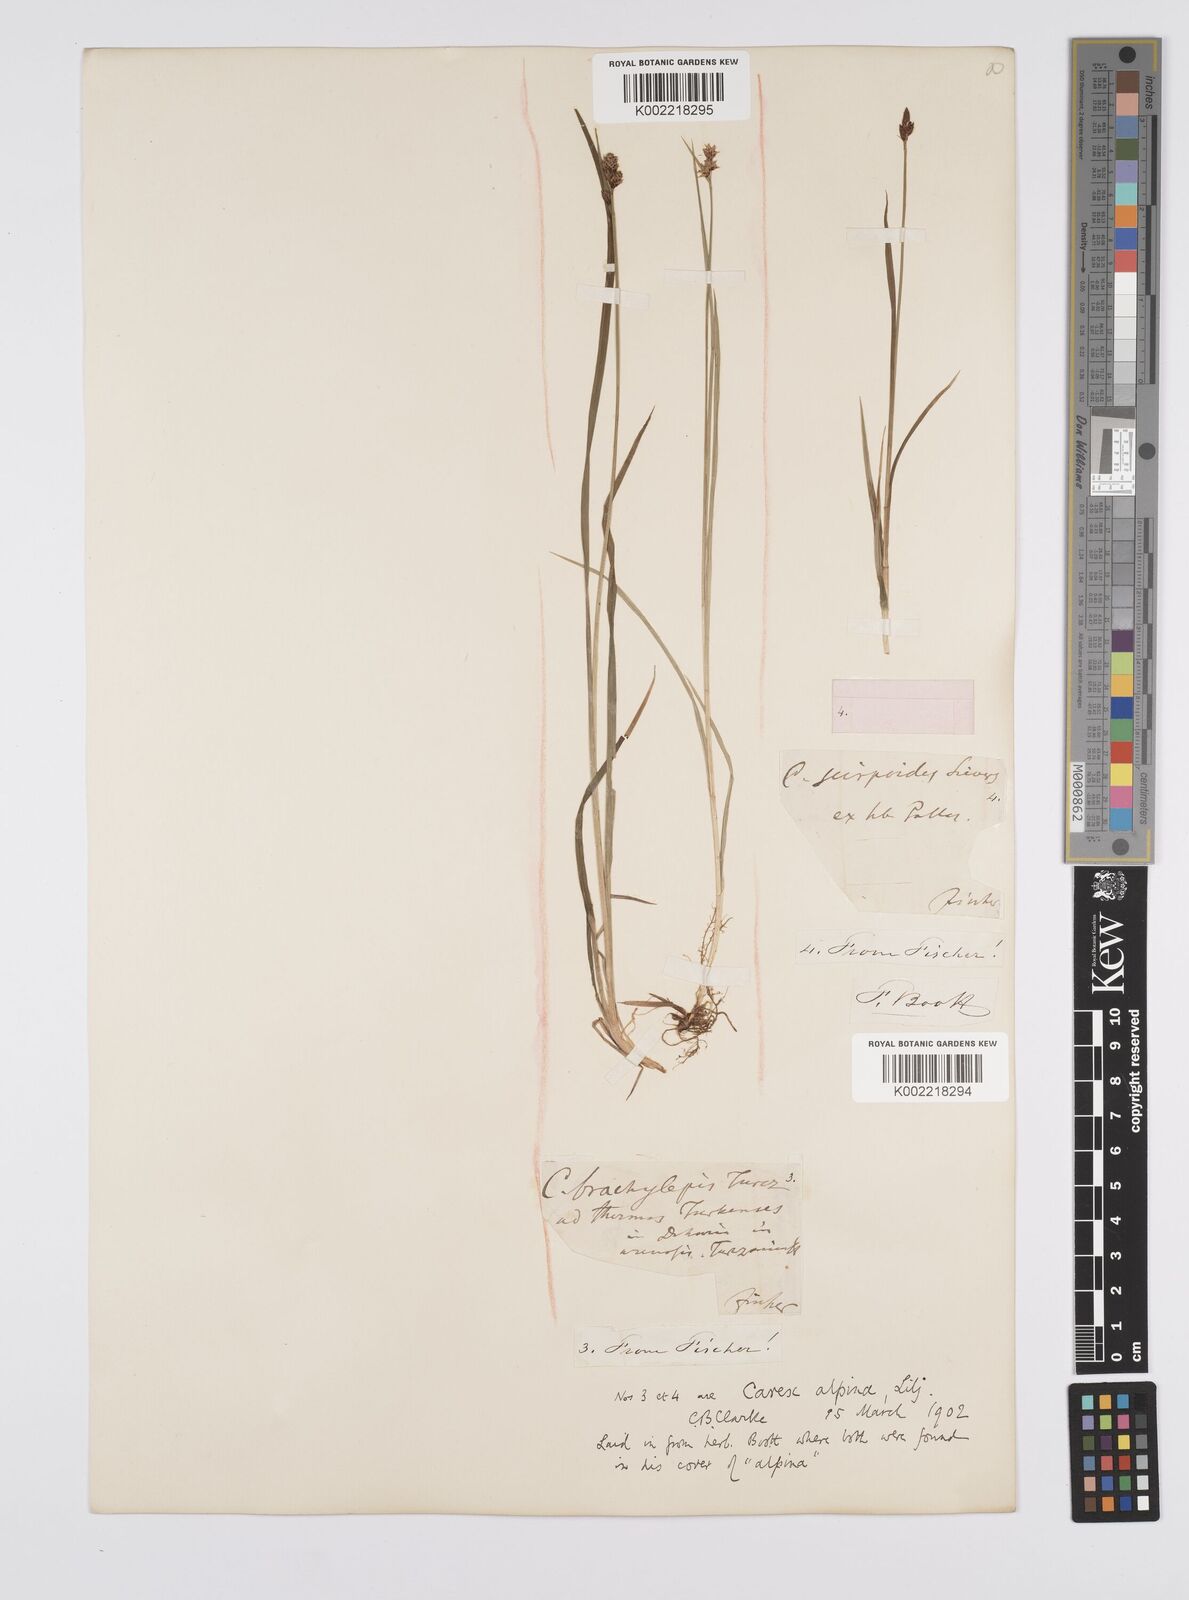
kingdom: Plantae
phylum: Tracheophyta
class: Liliopsida
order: Poales
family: Cyperaceae
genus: Carex
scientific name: Carex nigra
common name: Common sedge
